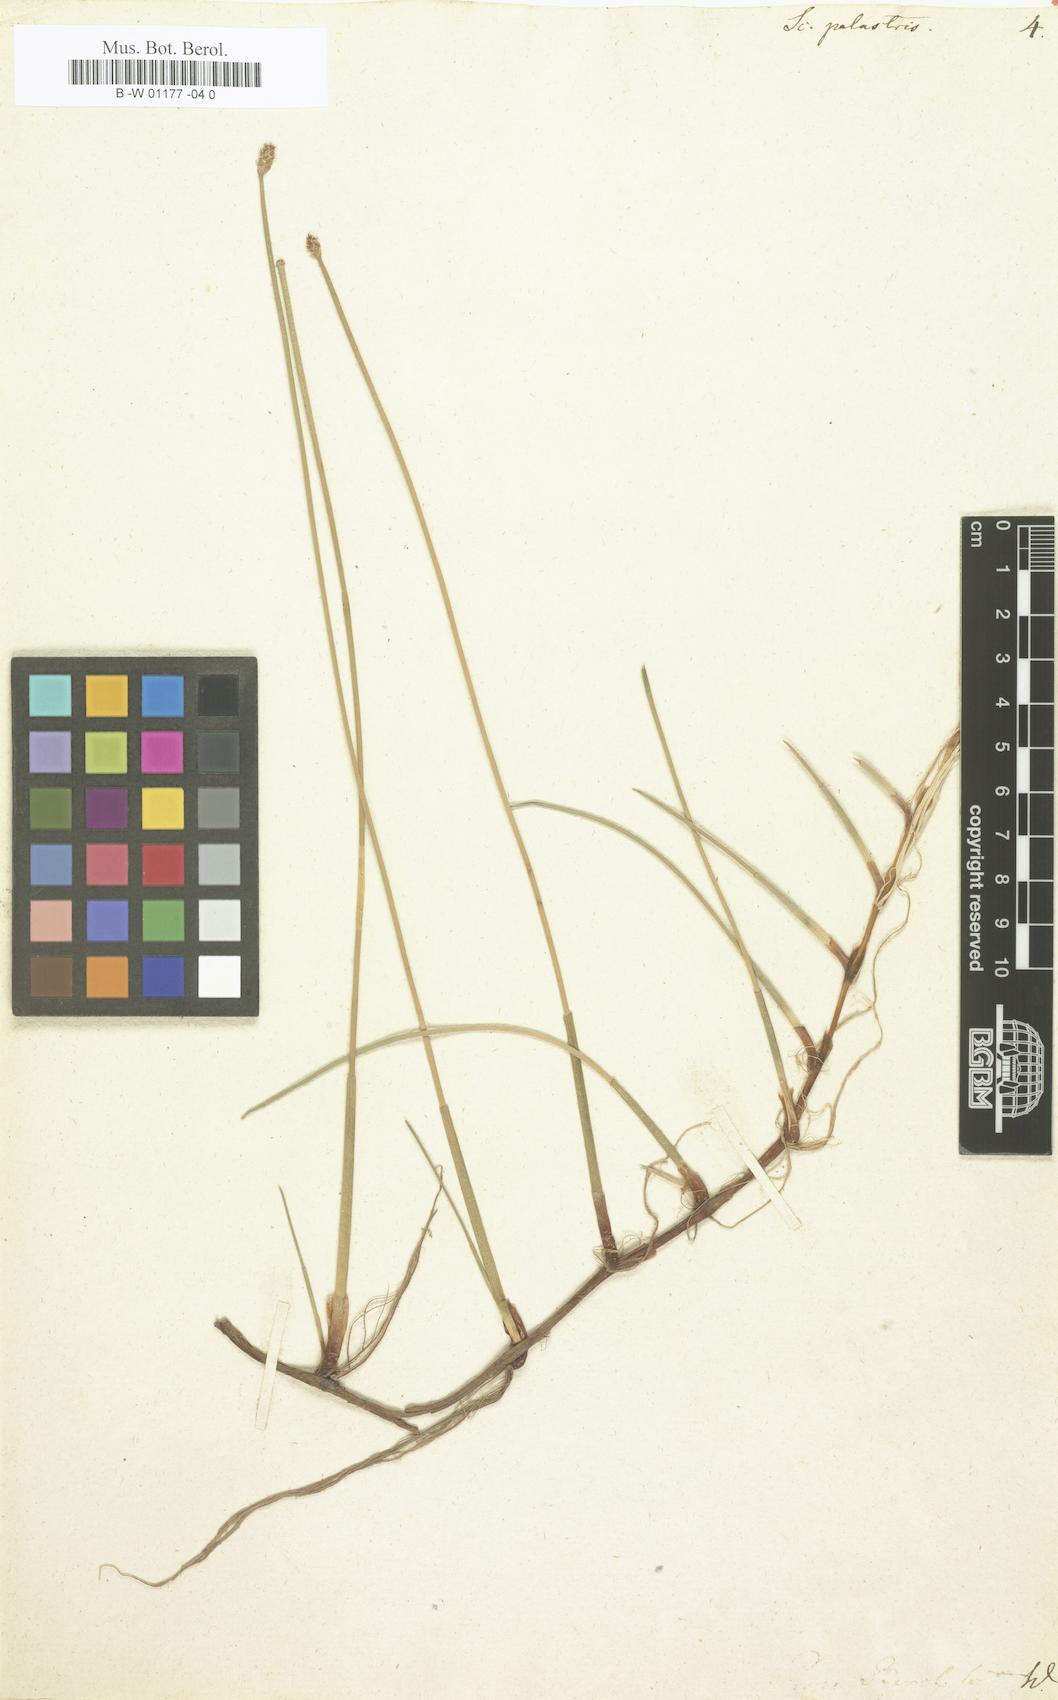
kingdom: Plantae
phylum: Tracheophyta
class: Liliopsida
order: Poales
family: Cyperaceae
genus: Eleocharis
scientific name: Eleocharis palustris
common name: Common spike-rush
